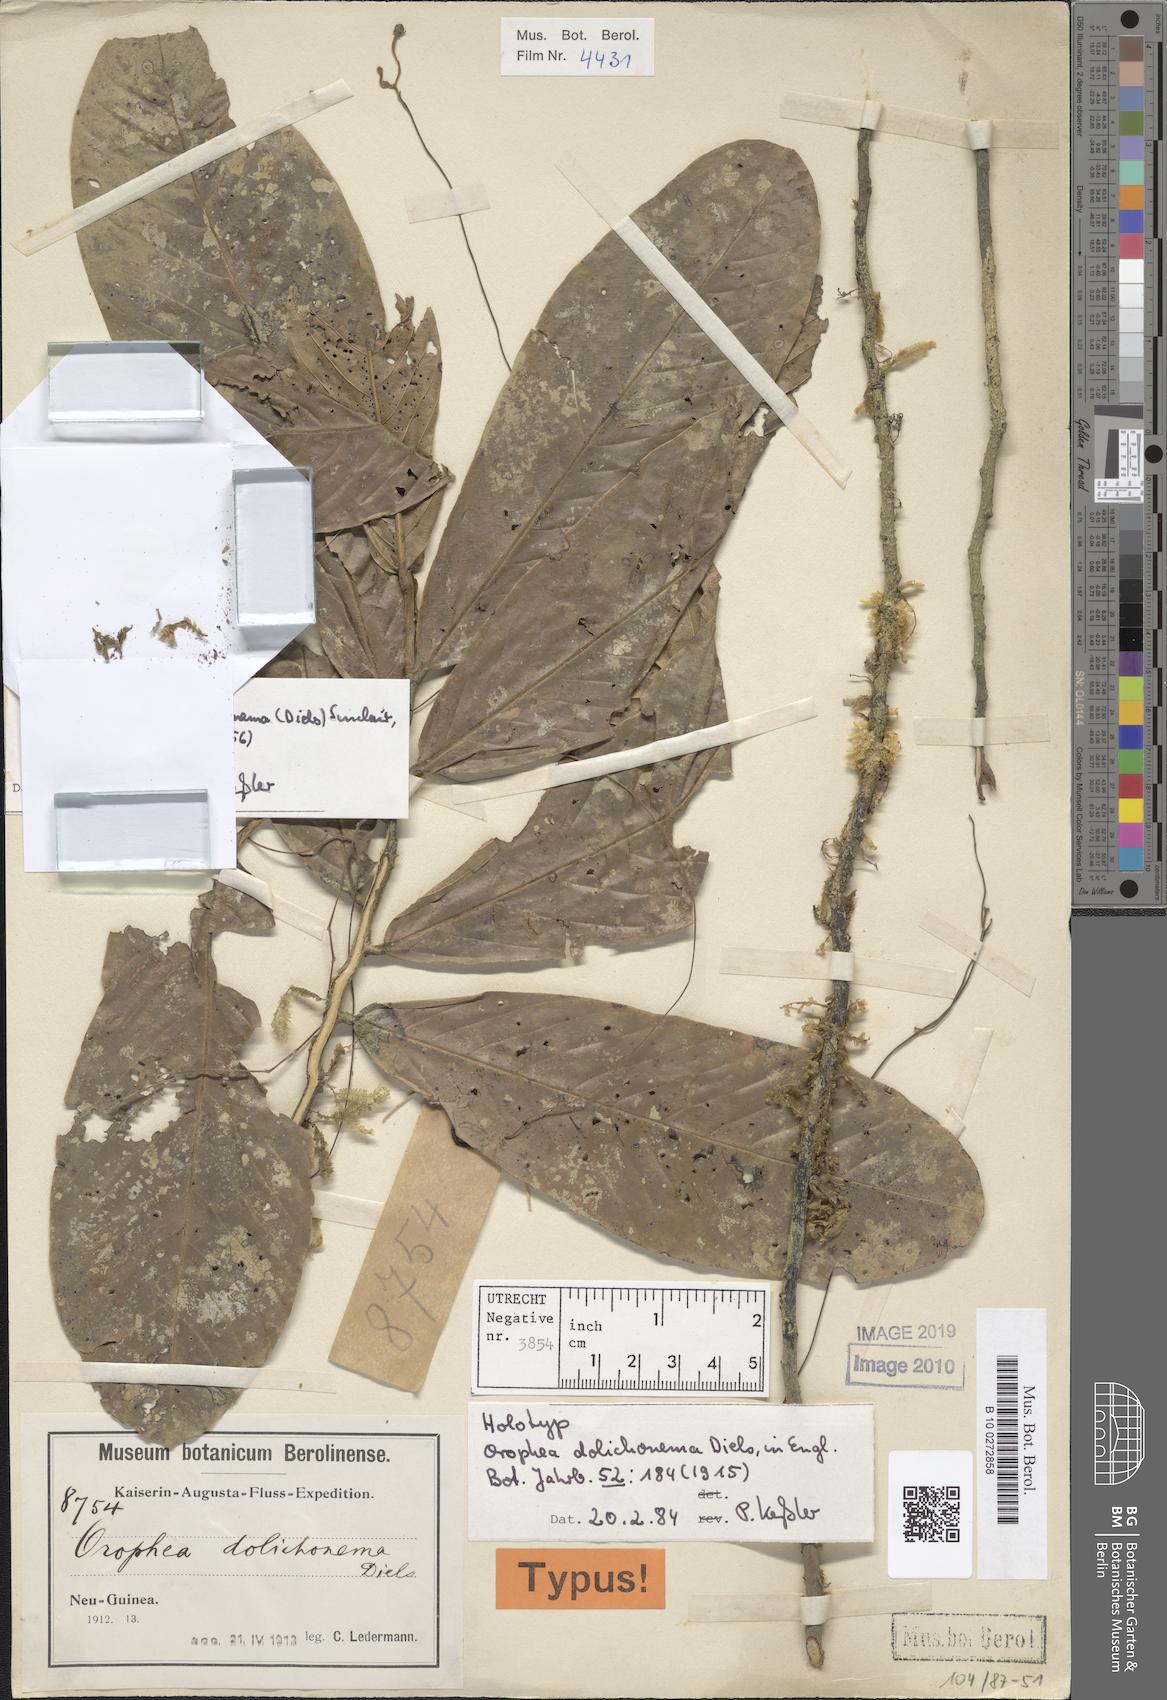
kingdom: Plantae
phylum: Tracheophyta
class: Magnoliopsida
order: Magnoliales
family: Annonaceae
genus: Orophea
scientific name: Orophea dolichocarpa
